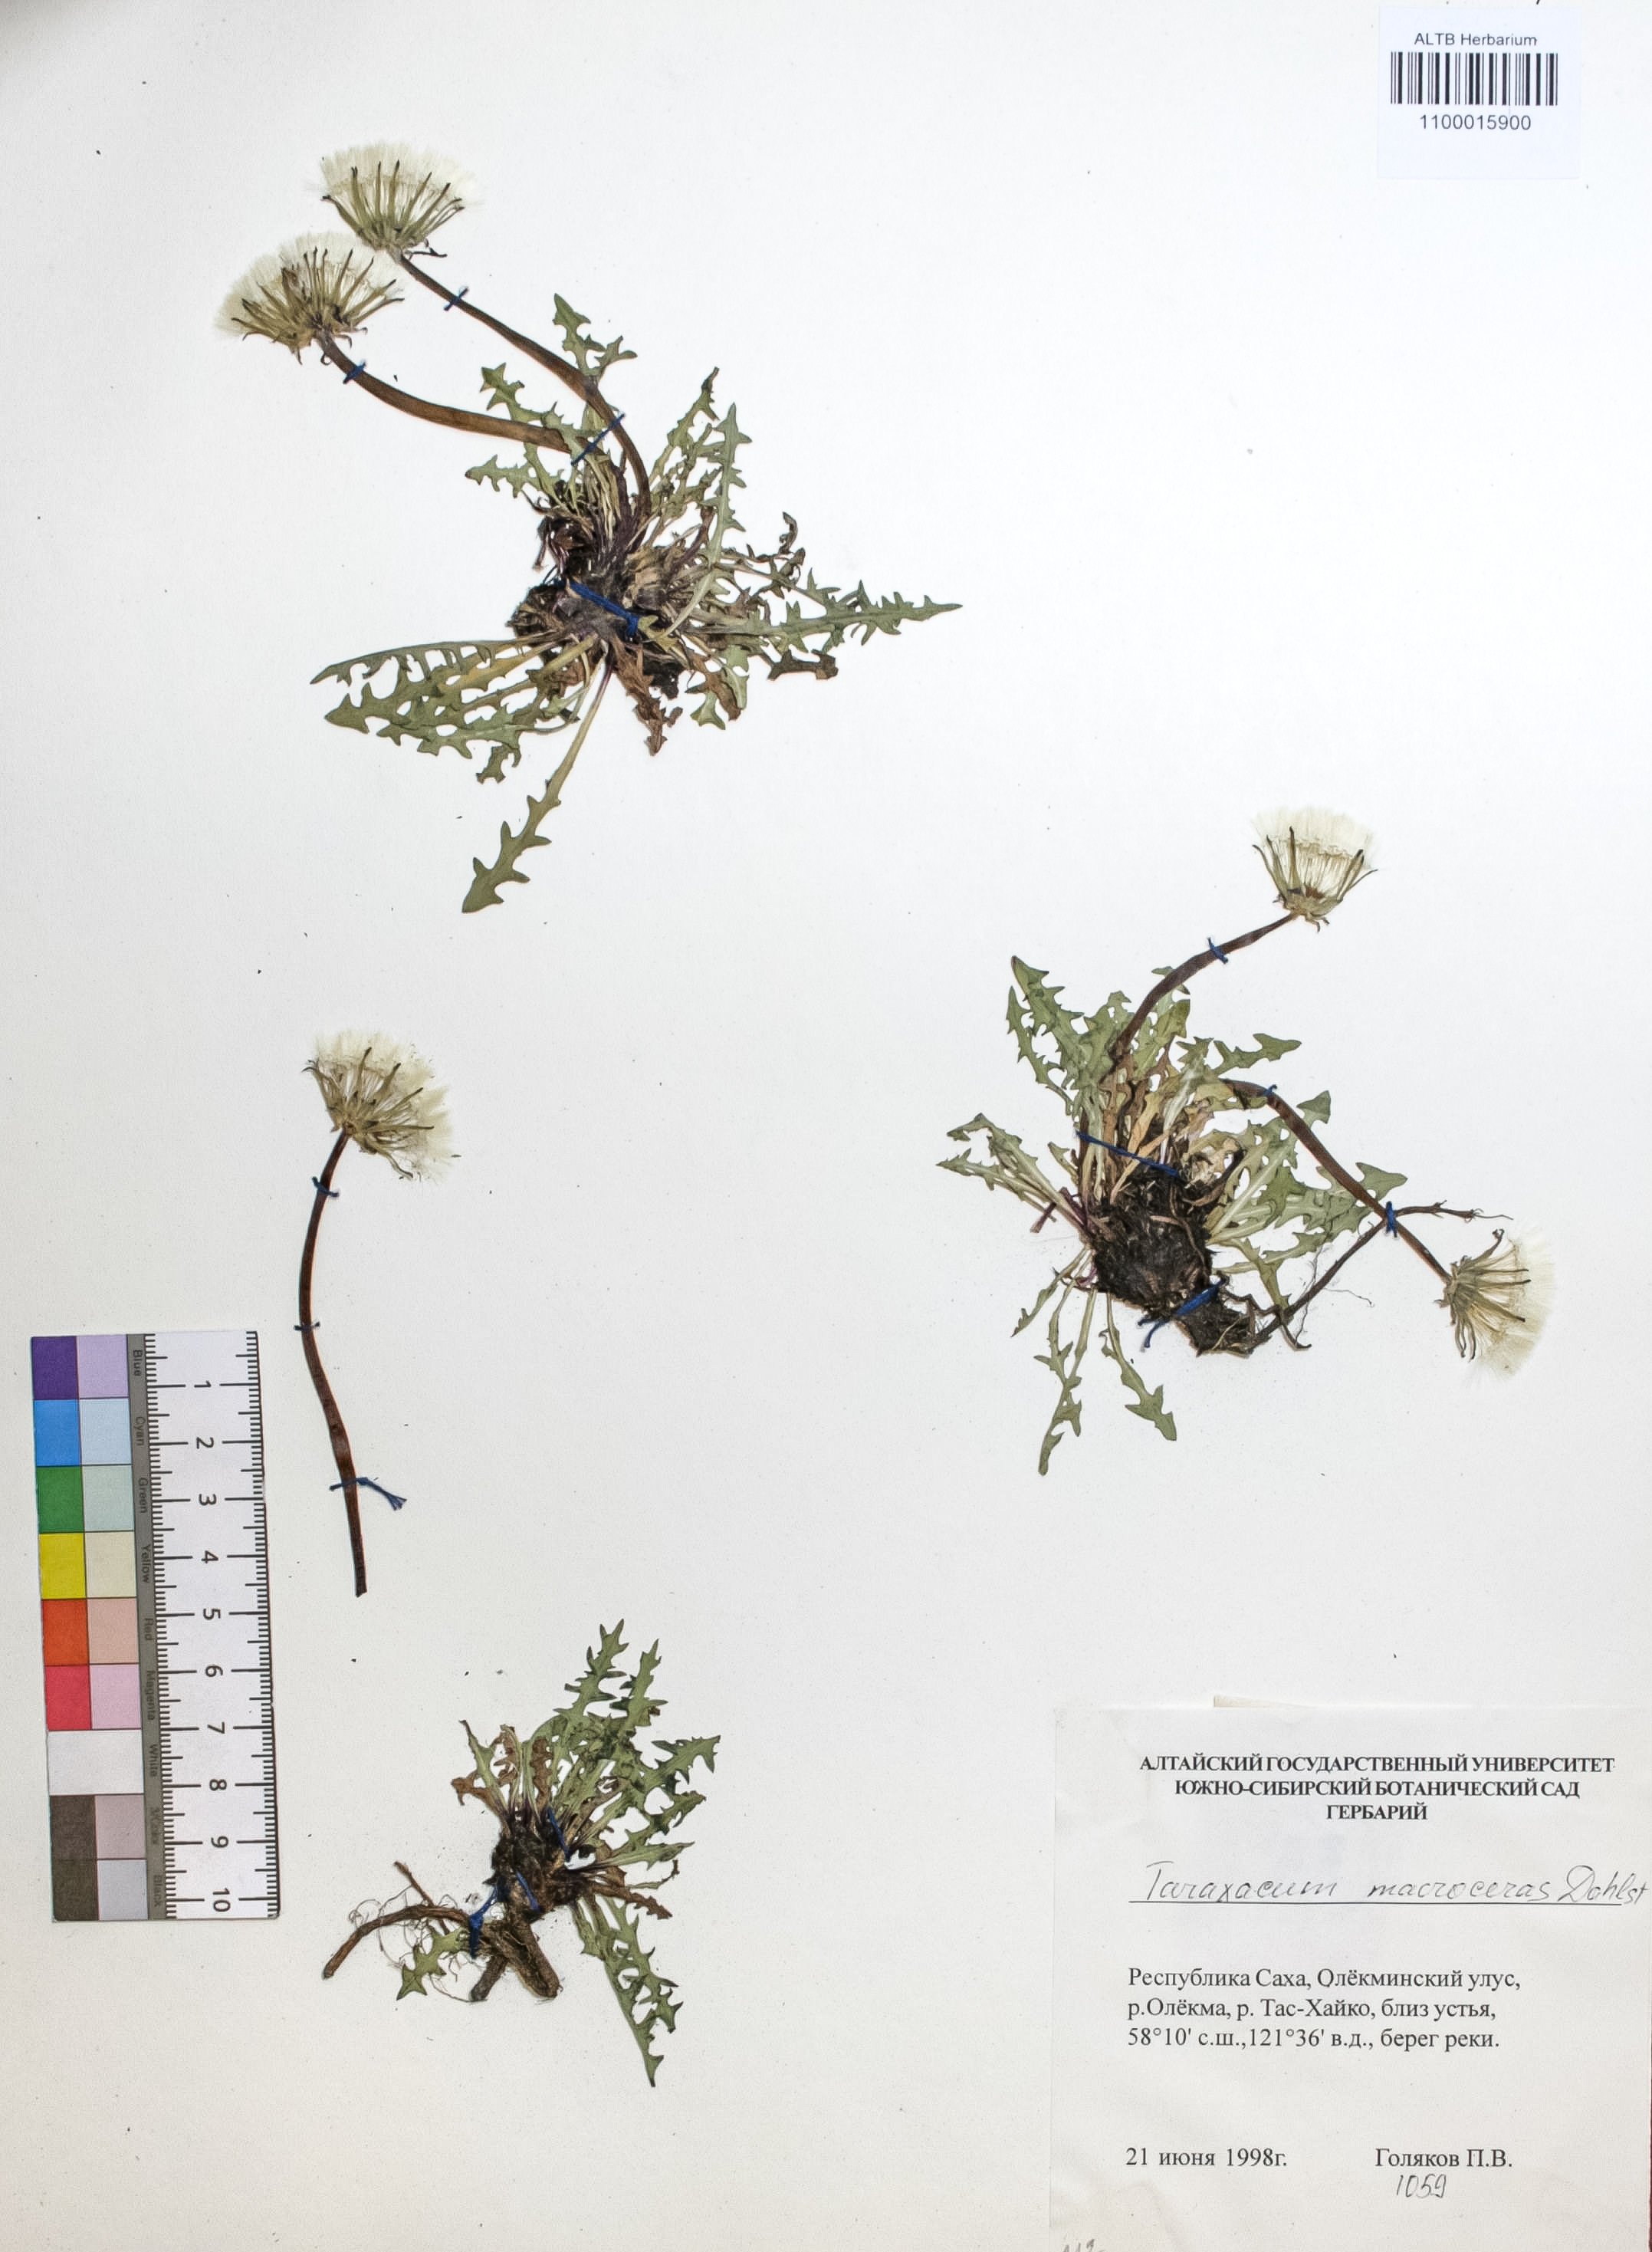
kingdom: Plantae
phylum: Tracheophyta
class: Magnoliopsida
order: Asterales
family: Asteraceae
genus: Taraxacum
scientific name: Taraxacum macroceras
